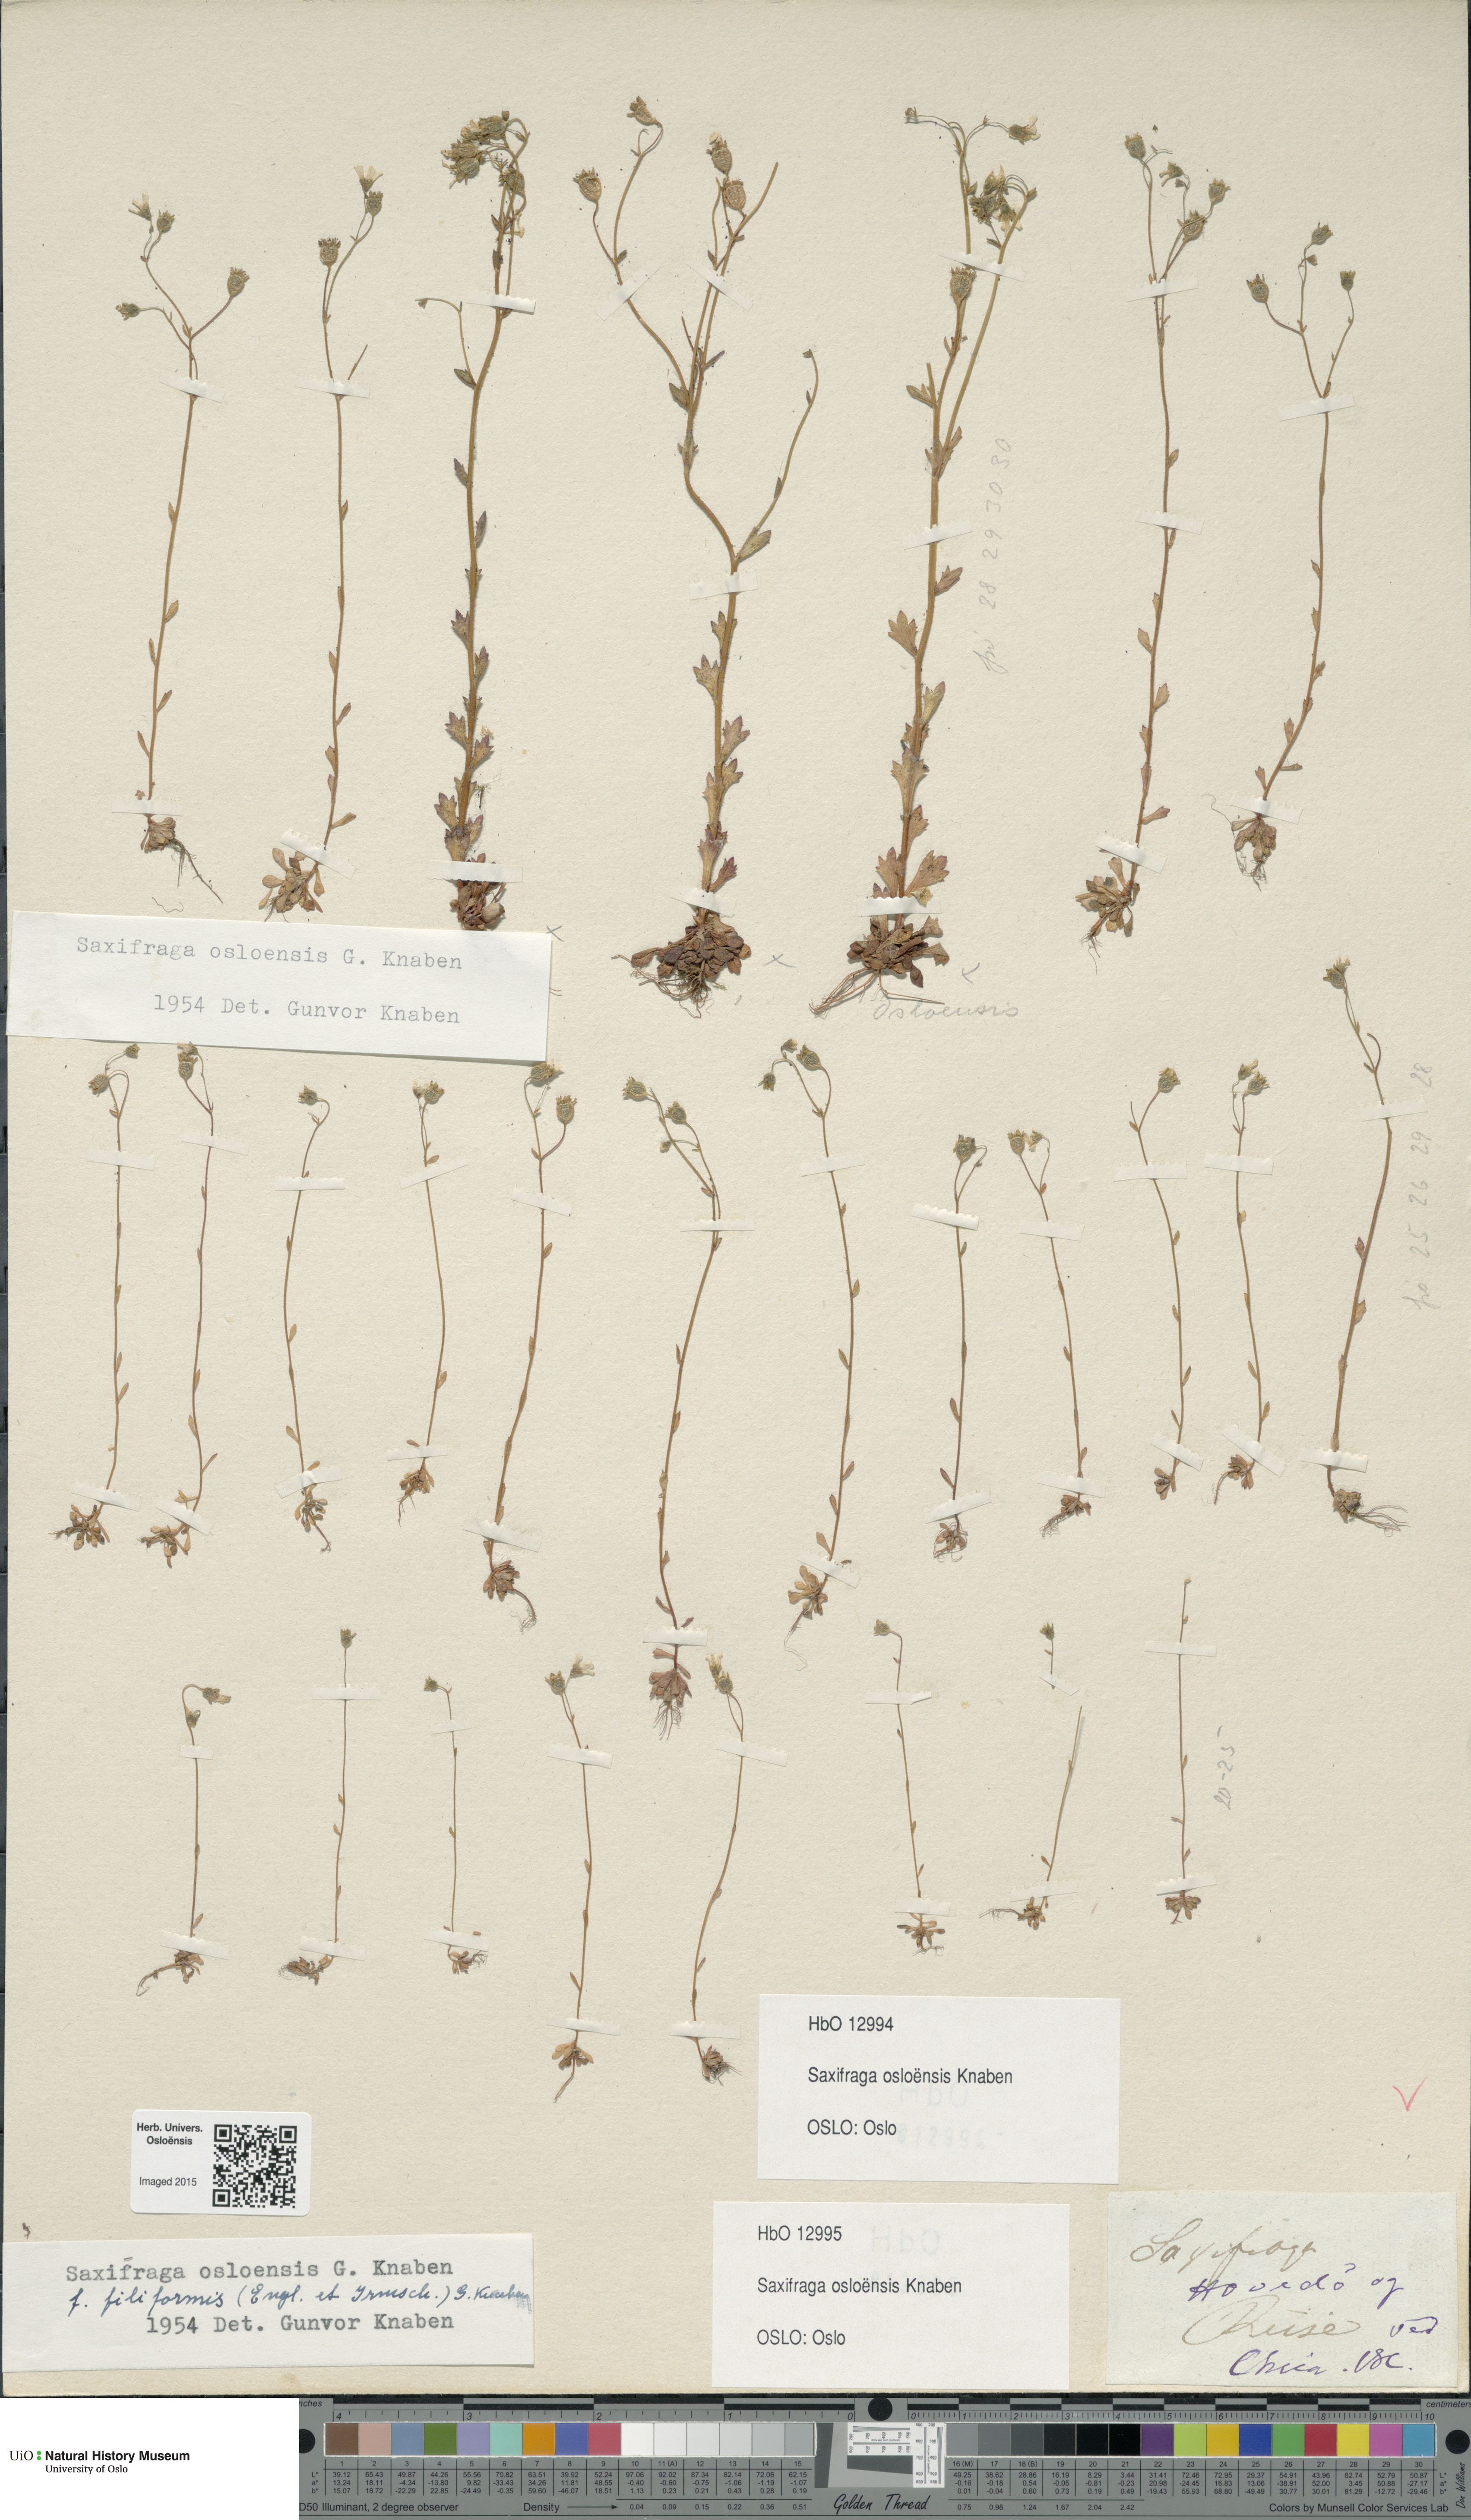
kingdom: Plantae
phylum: Tracheophyta
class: Magnoliopsida
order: Saxifragales
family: Saxifragaceae
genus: Saxifraga
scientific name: Saxifraga osloensis
